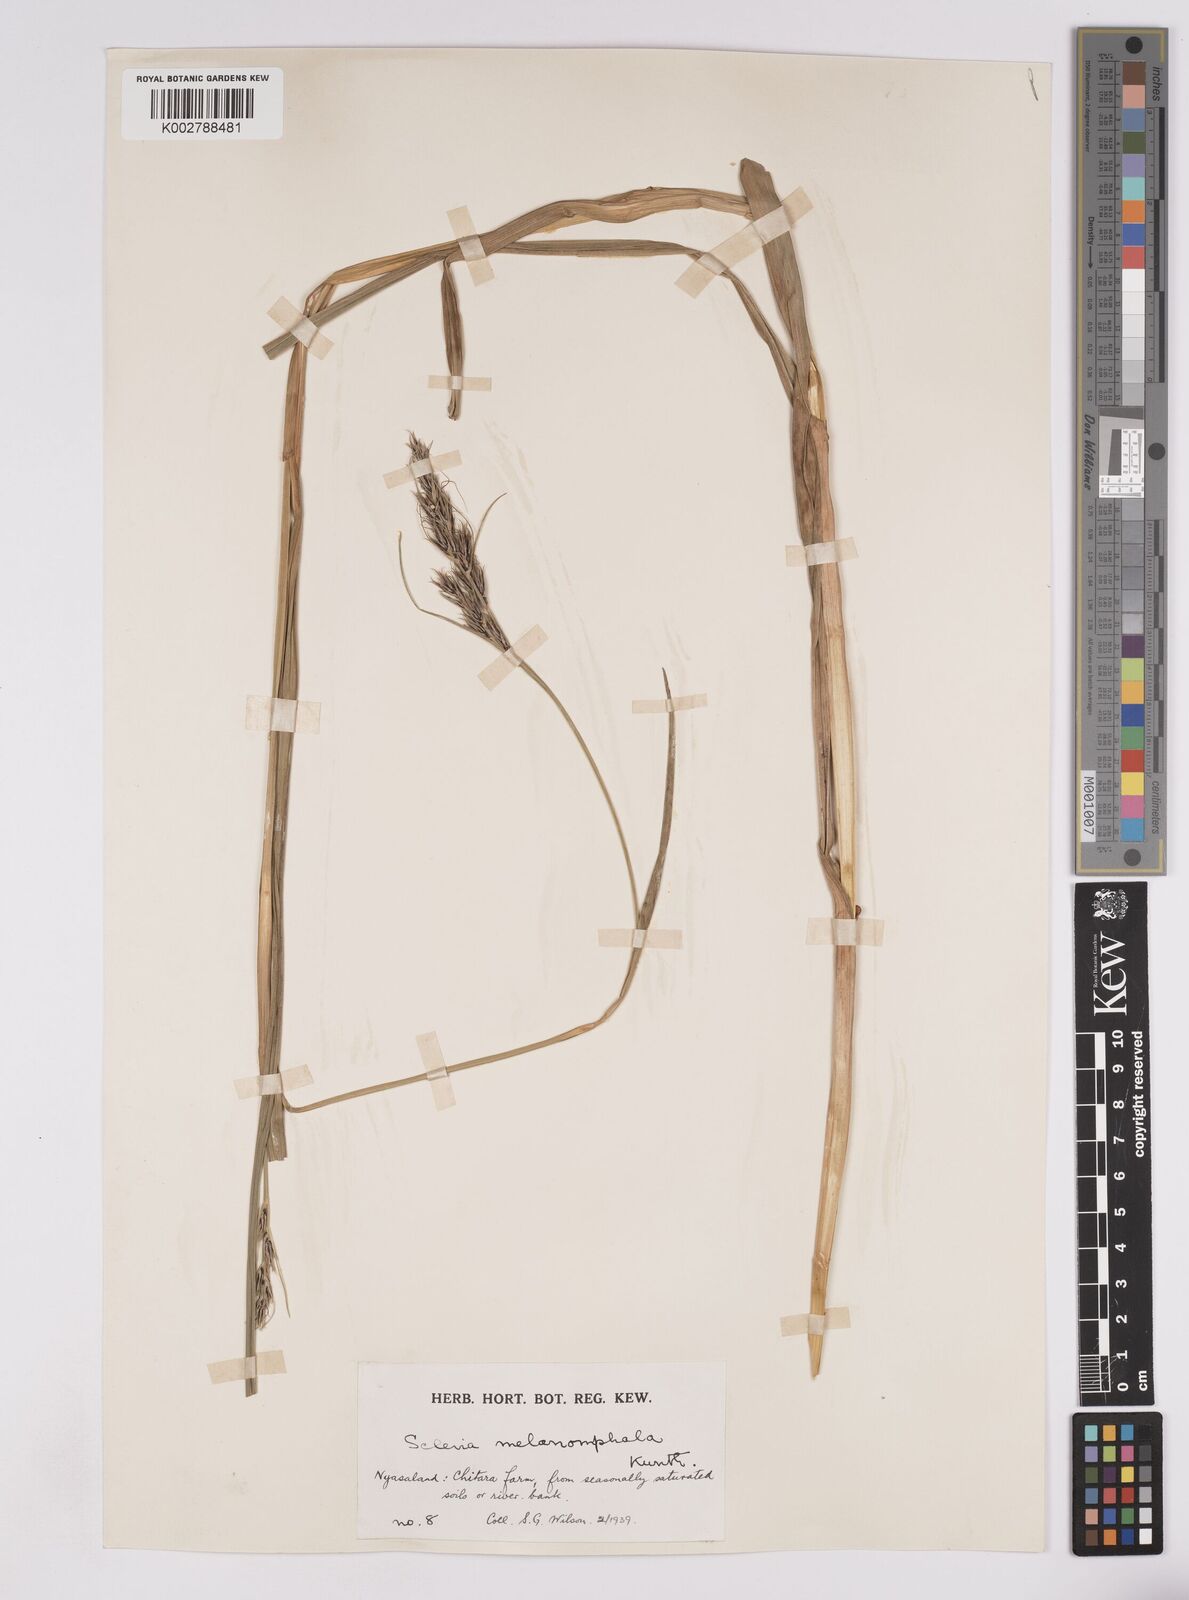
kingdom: Plantae
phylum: Tracheophyta
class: Liliopsida
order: Poales
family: Cyperaceae
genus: Scleria
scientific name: Scleria melanomphala
